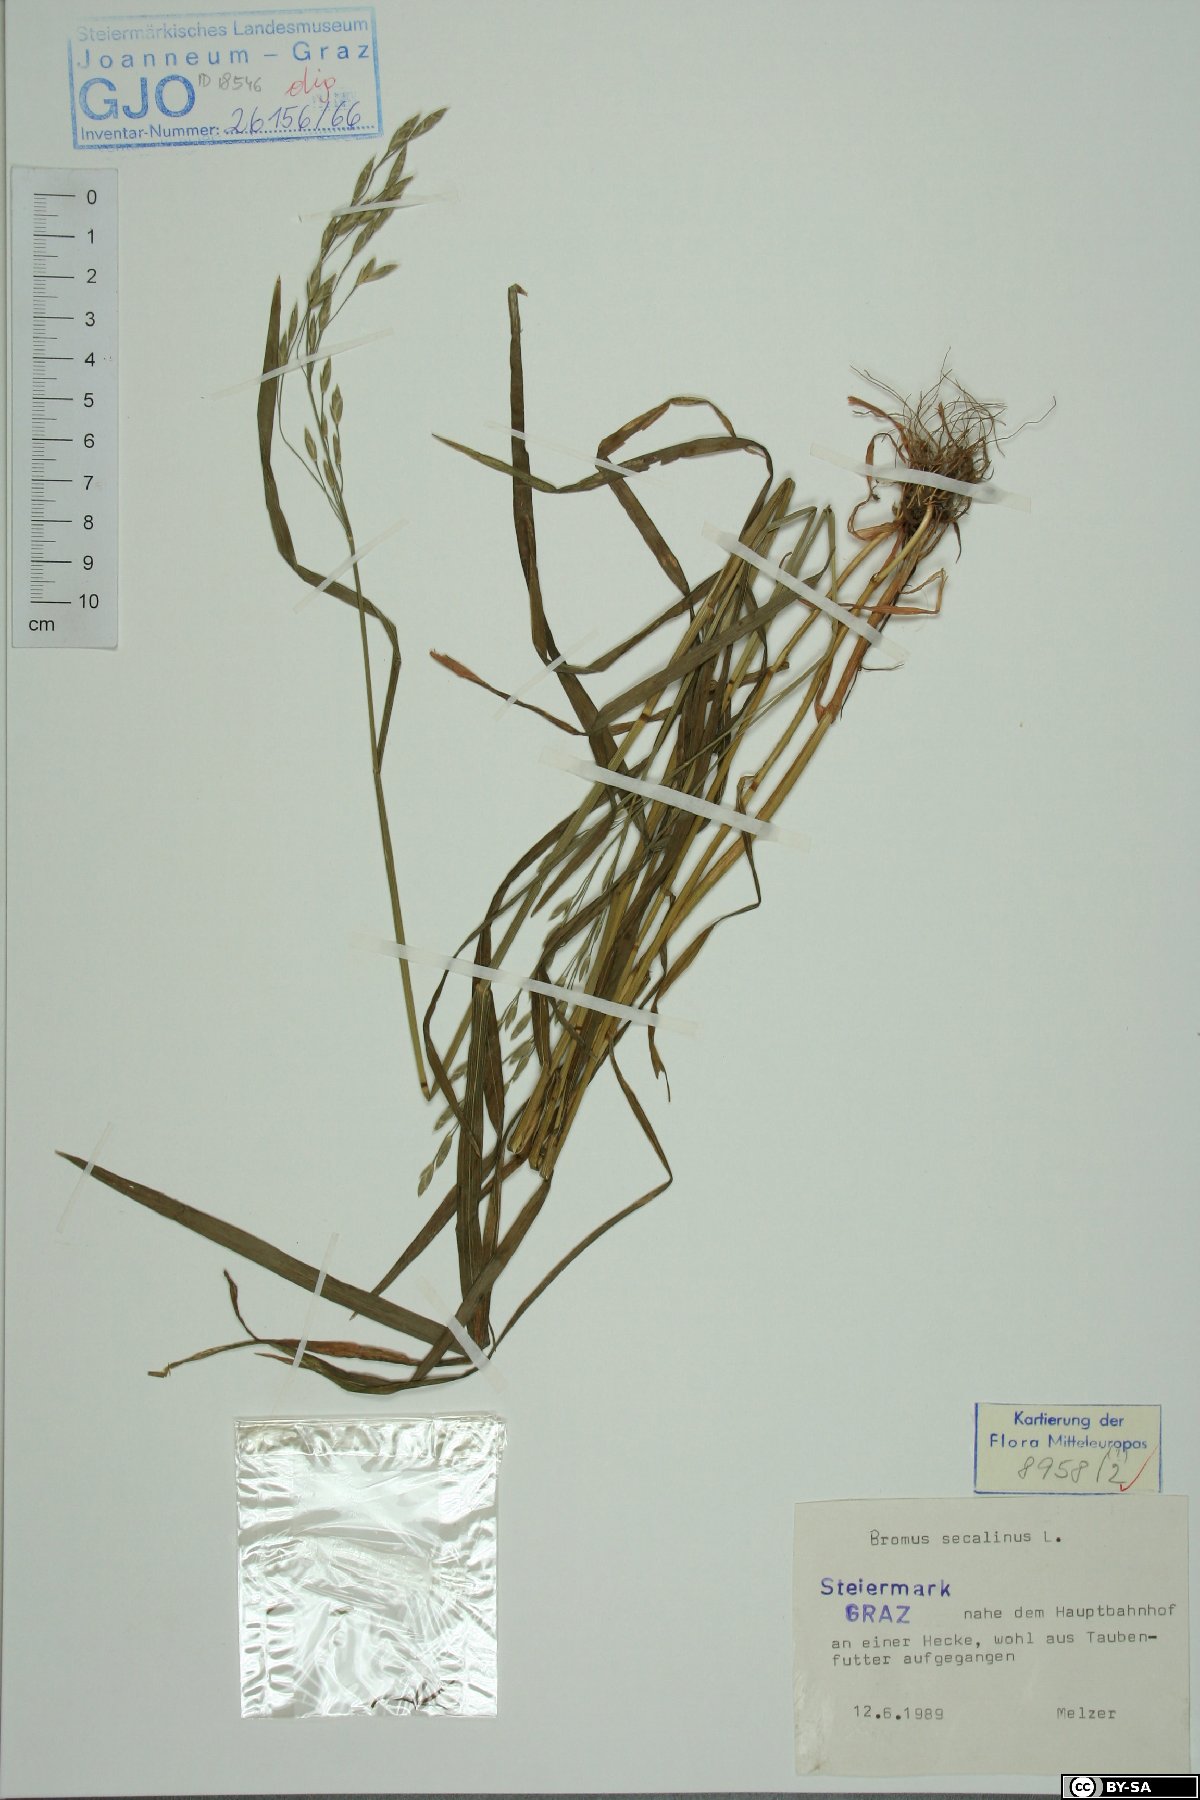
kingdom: Plantae
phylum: Tracheophyta
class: Liliopsida
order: Poales
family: Poaceae
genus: Bromus
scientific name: Bromus secalinus
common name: Rye brome
